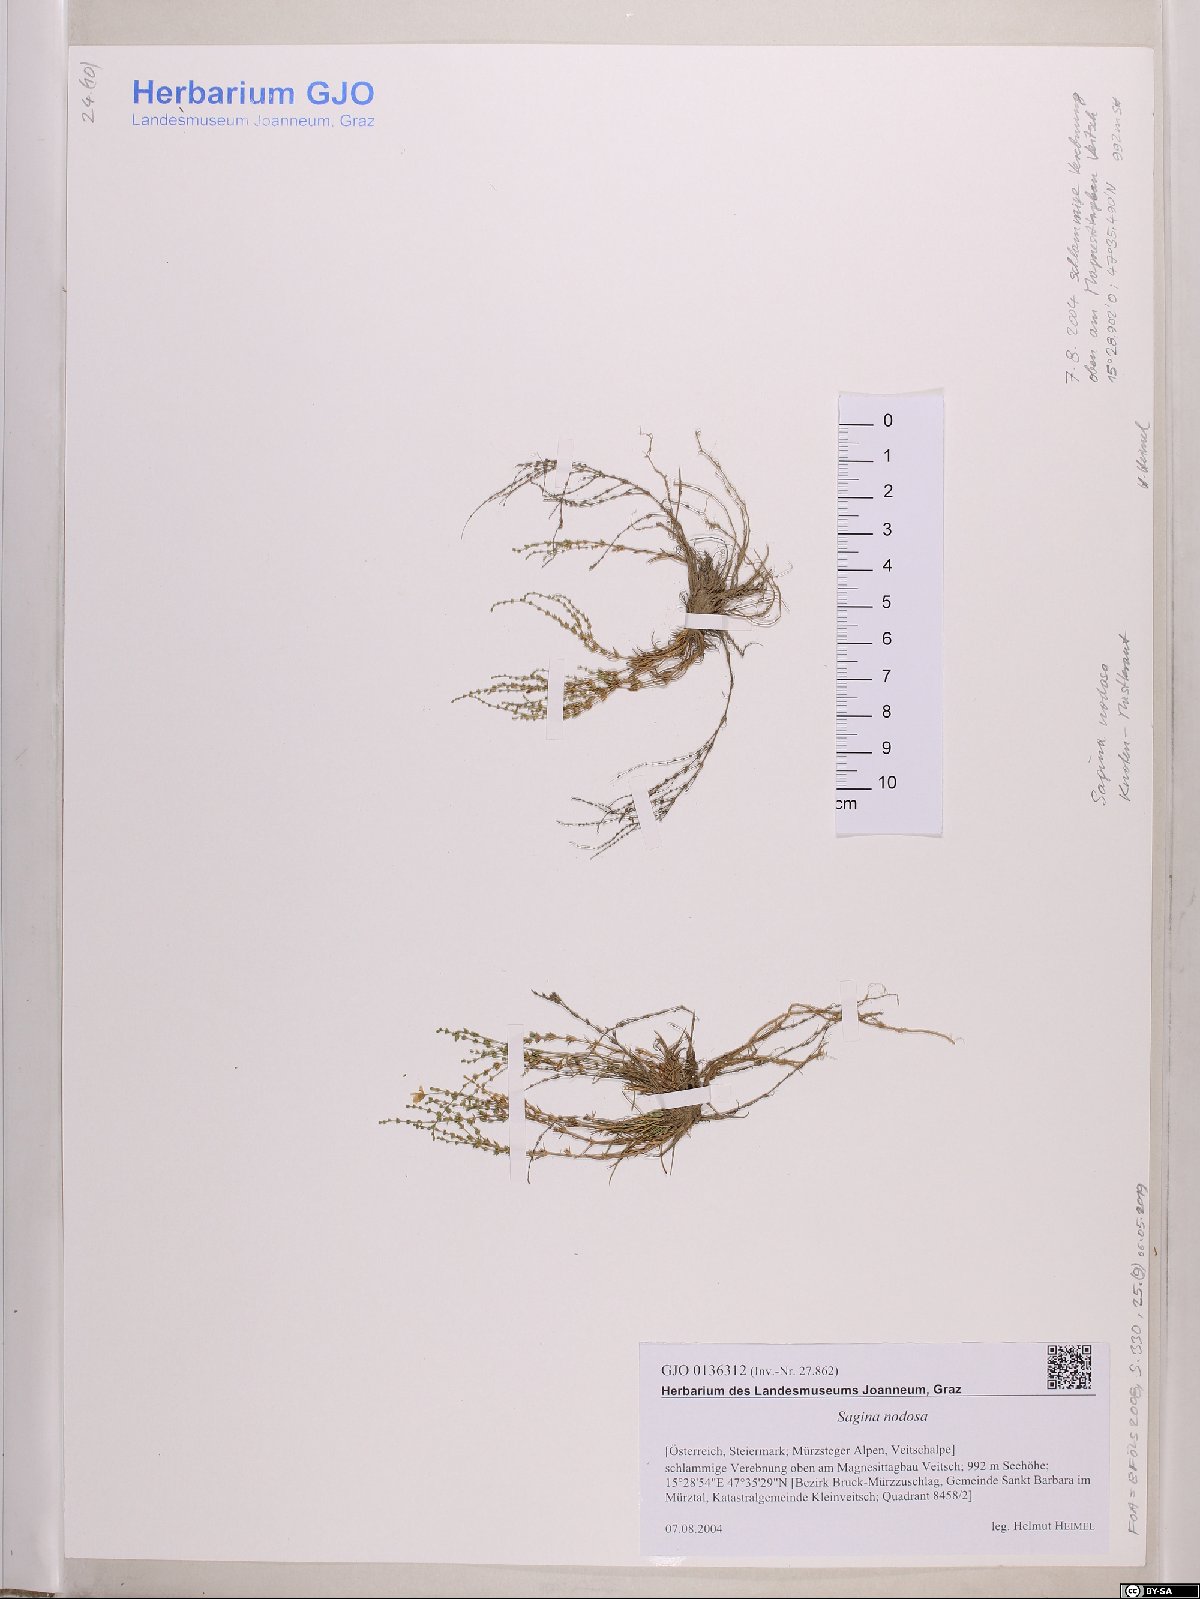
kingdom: Plantae
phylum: Tracheophyta
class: Magnoliopsida
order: Caryophyllales
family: Caryophyllaceae
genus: Sagina
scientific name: Sagina nodosa
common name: Knotted pearlwort
